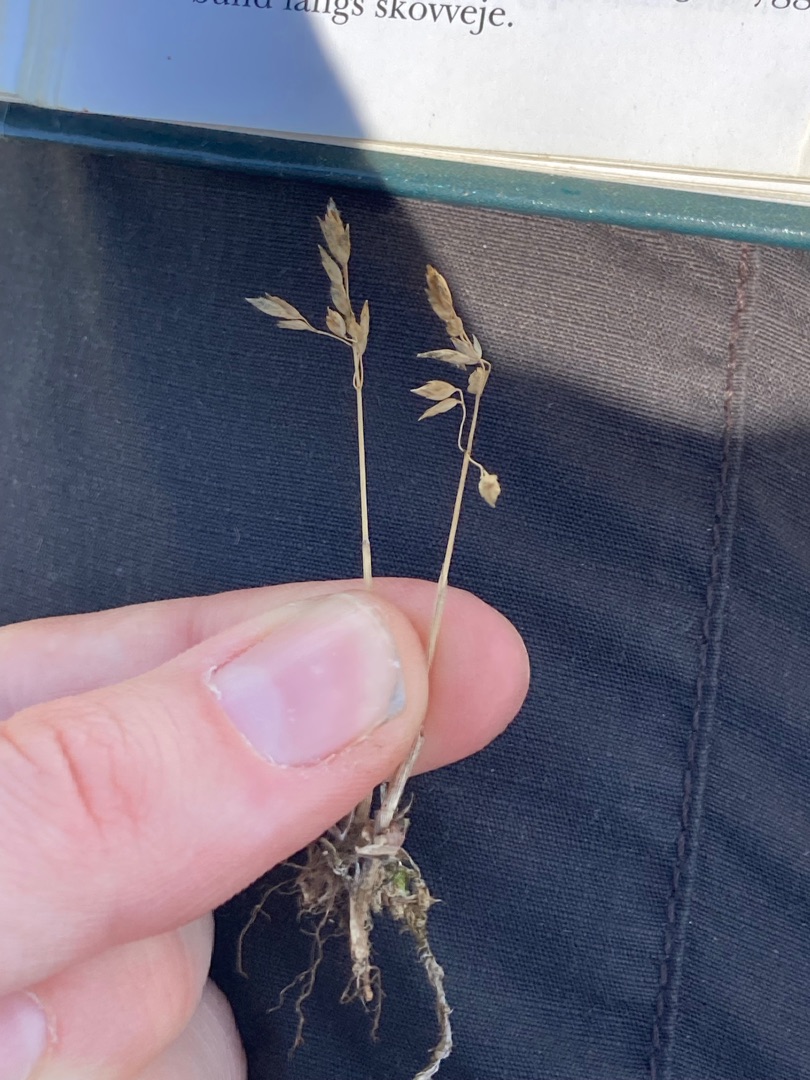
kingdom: Plantae
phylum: Tracheophyta
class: Liliopsida
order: Poales
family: Poaceae
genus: Poa
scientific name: Poa humilis
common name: Blågrøn rapgræs
